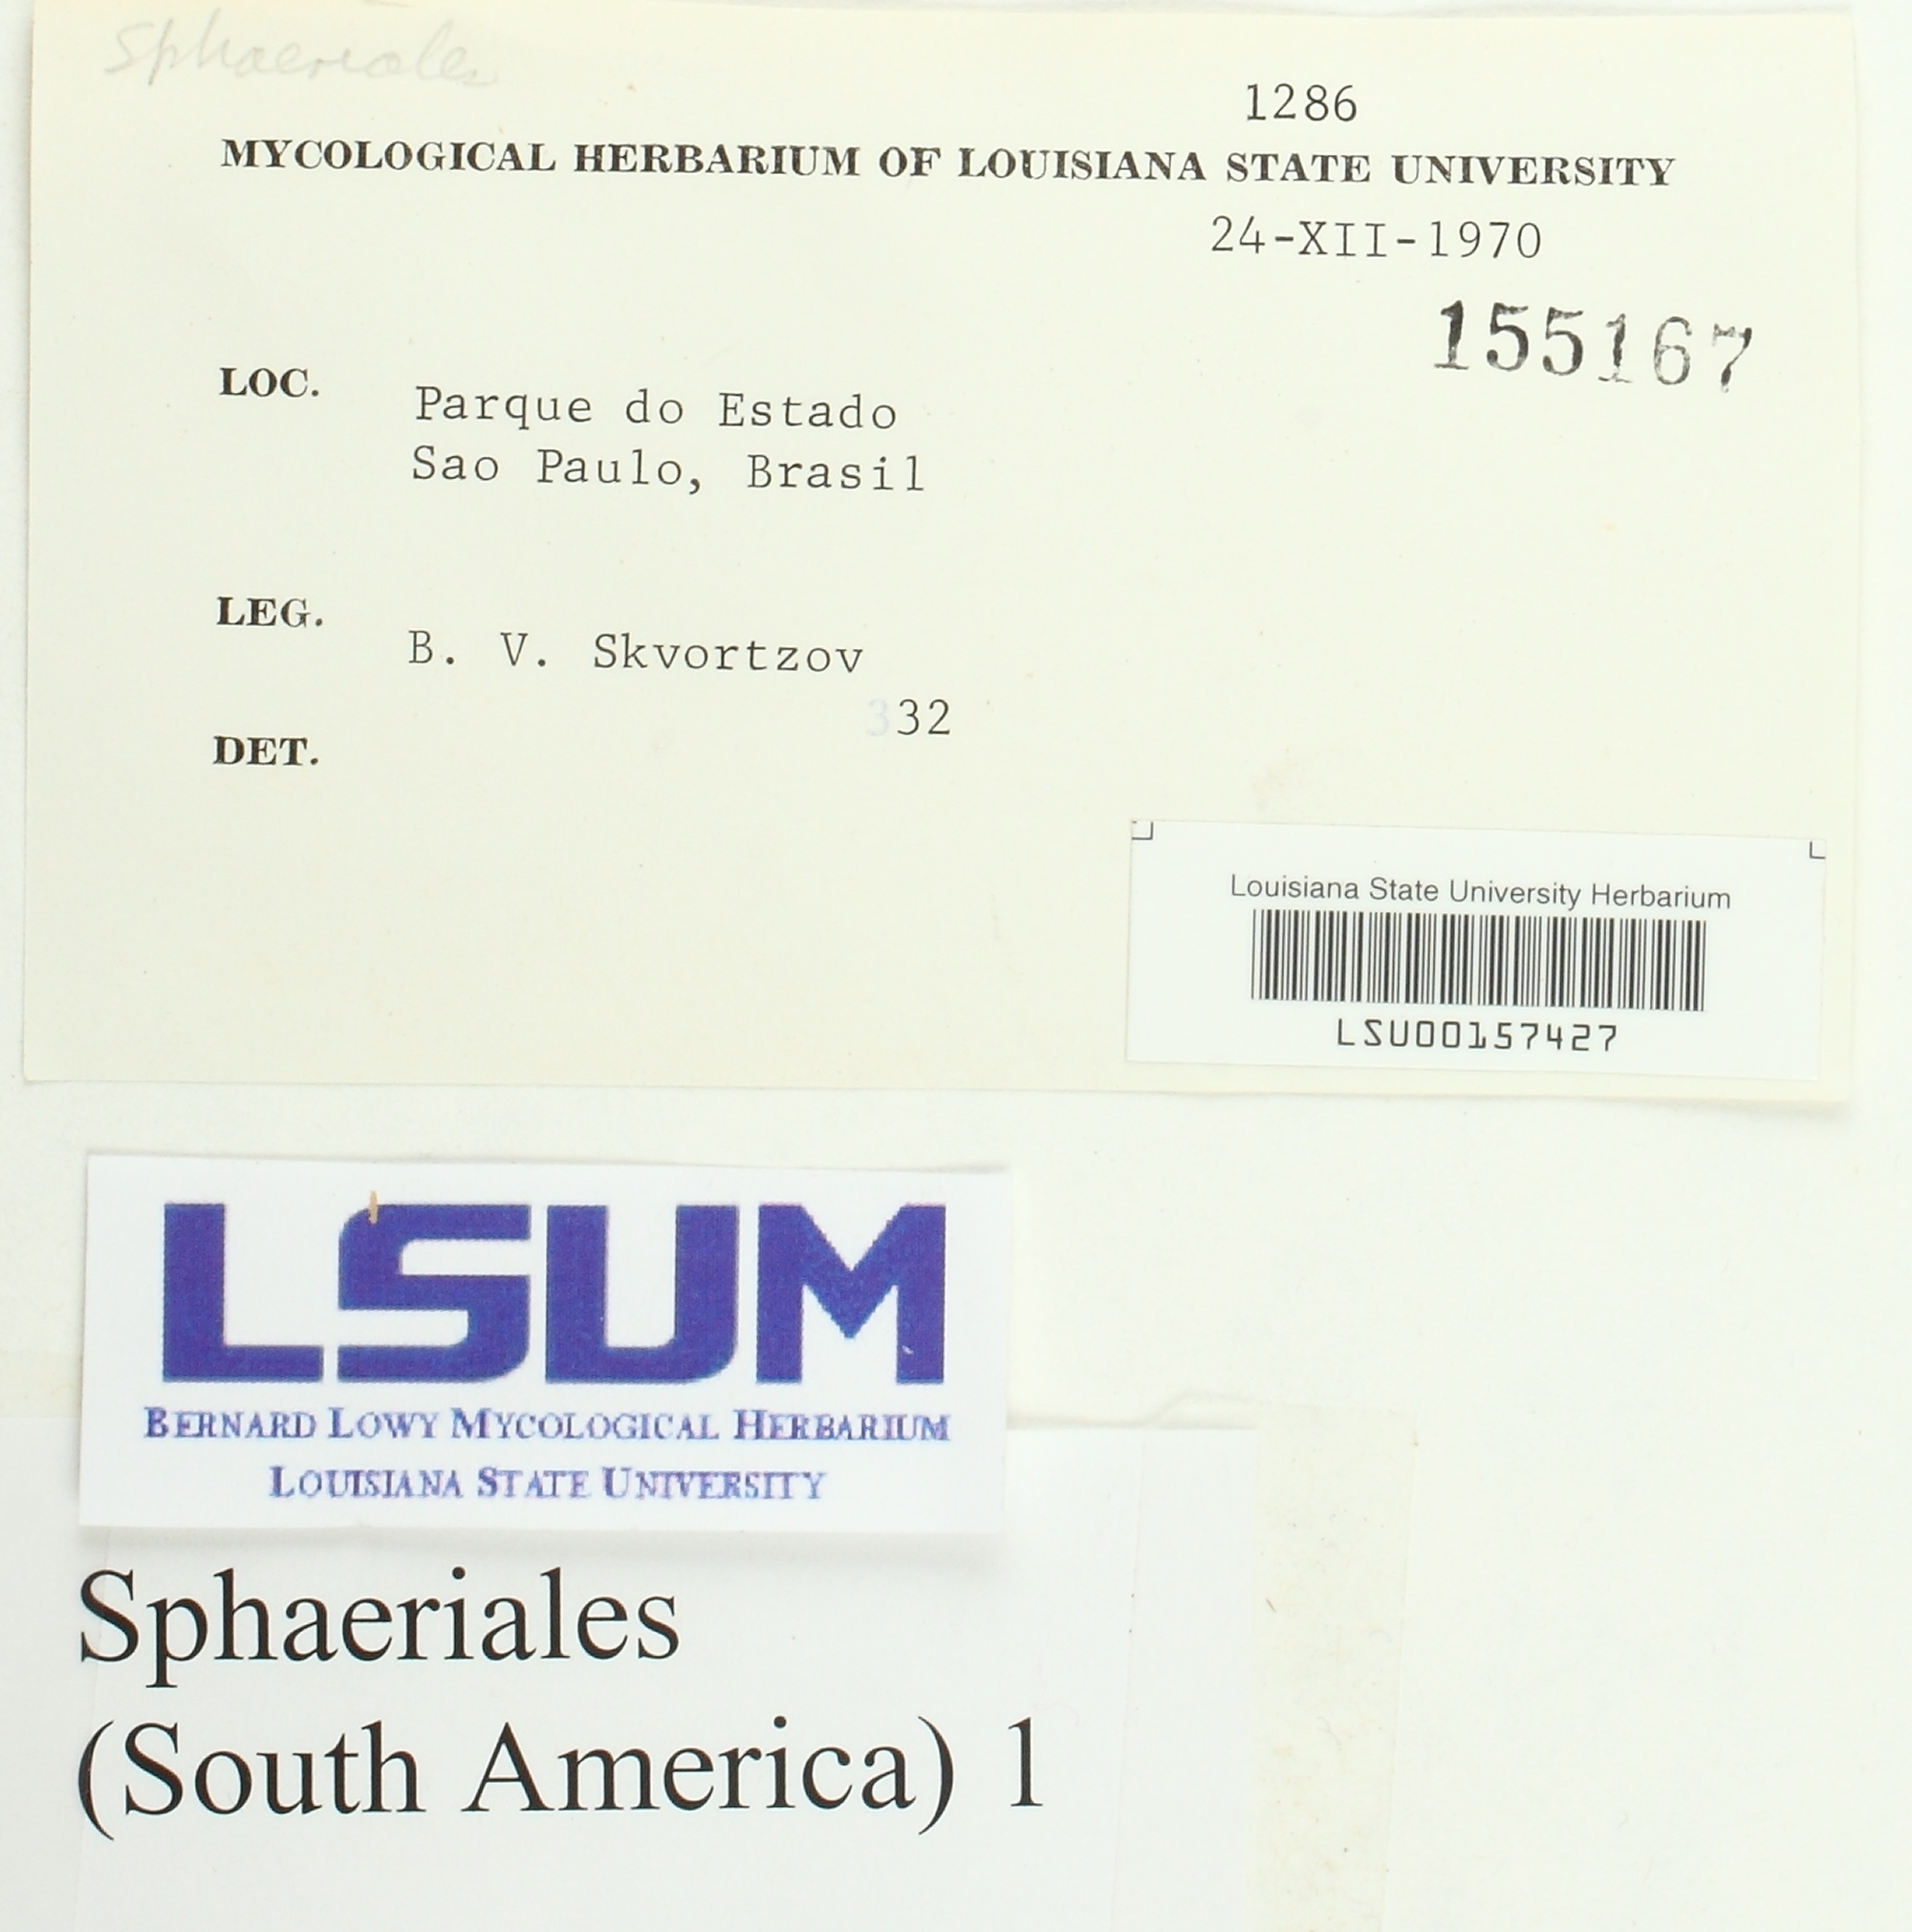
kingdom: Fungi
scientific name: Fungi
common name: Fungi
